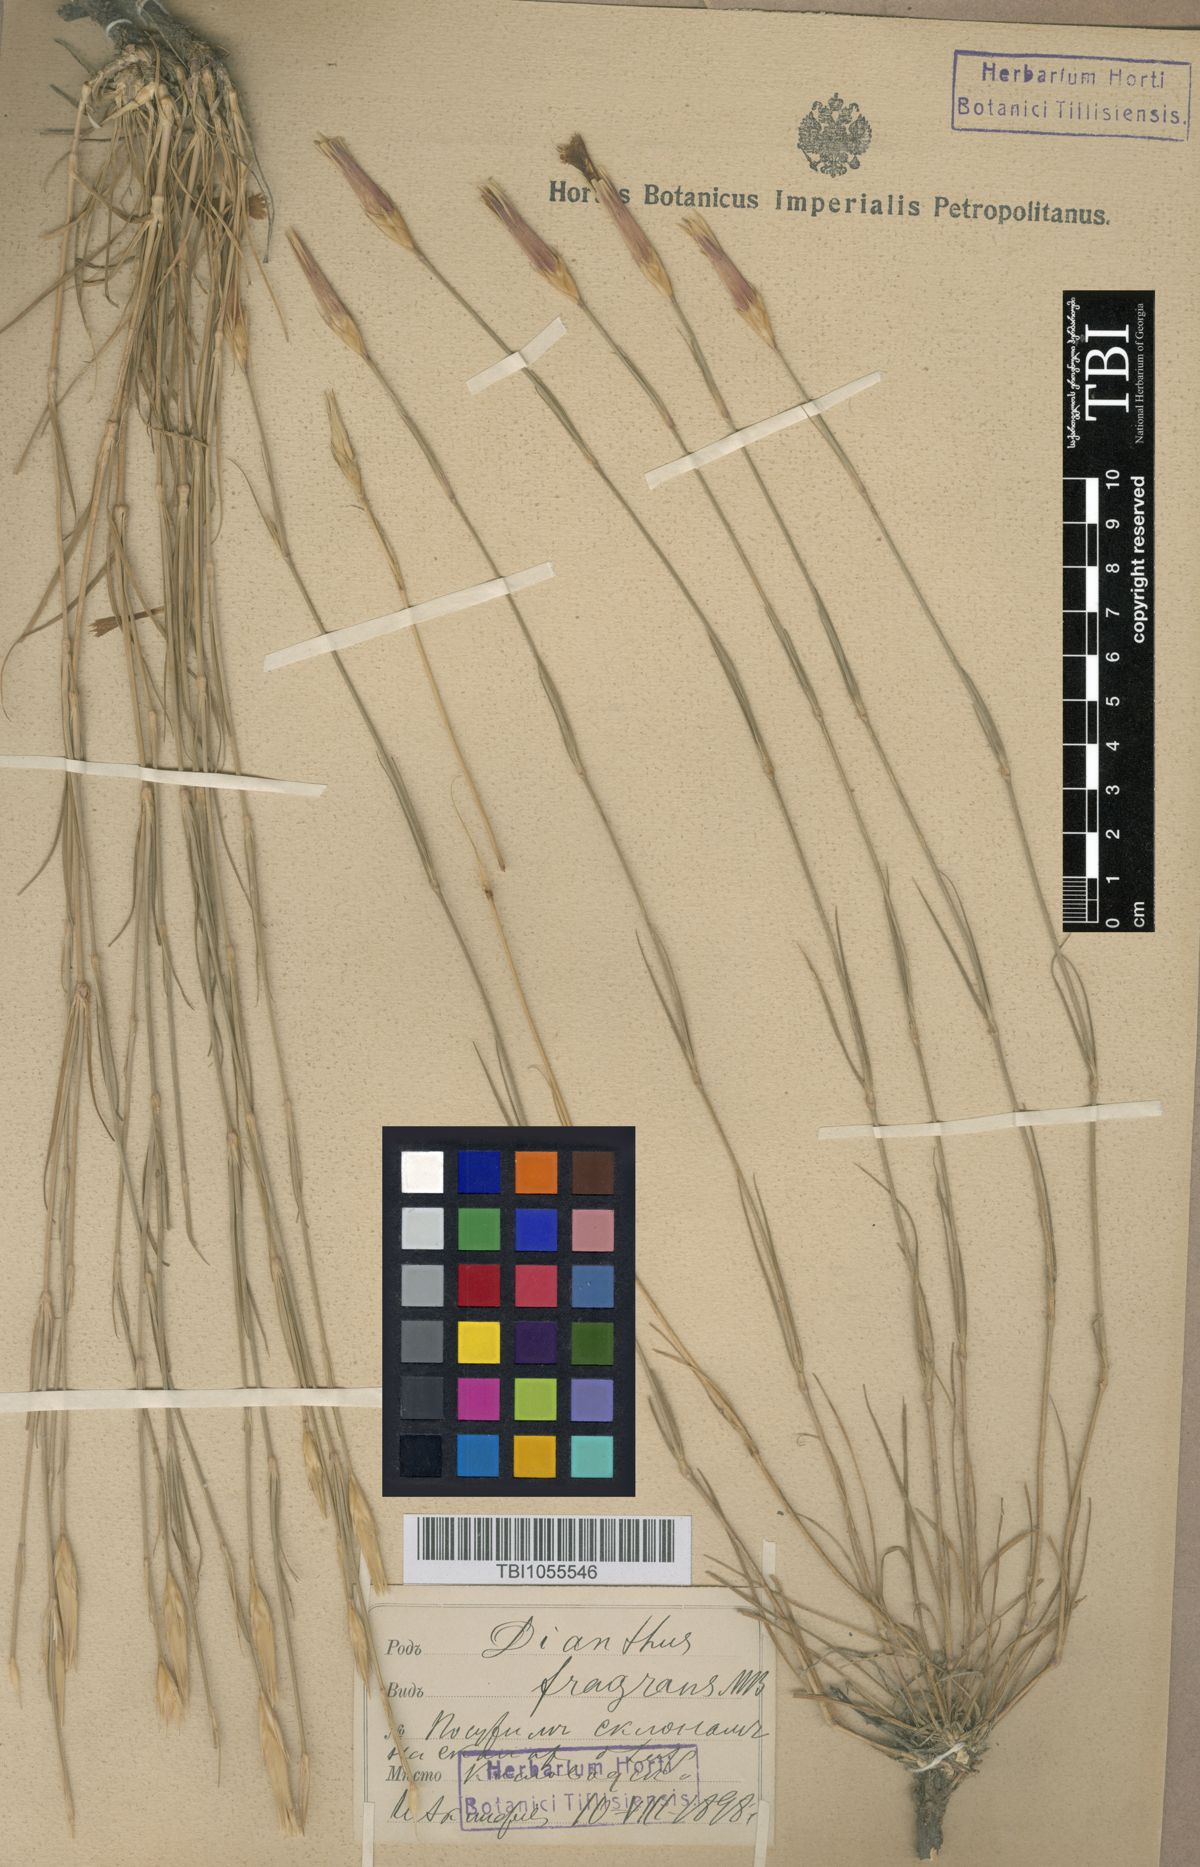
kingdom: Plantae
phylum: Tracheophyta
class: Magnoliopsida
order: Caryophyllales
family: Caryophyllaceae
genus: Dianthus
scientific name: Dianthus
